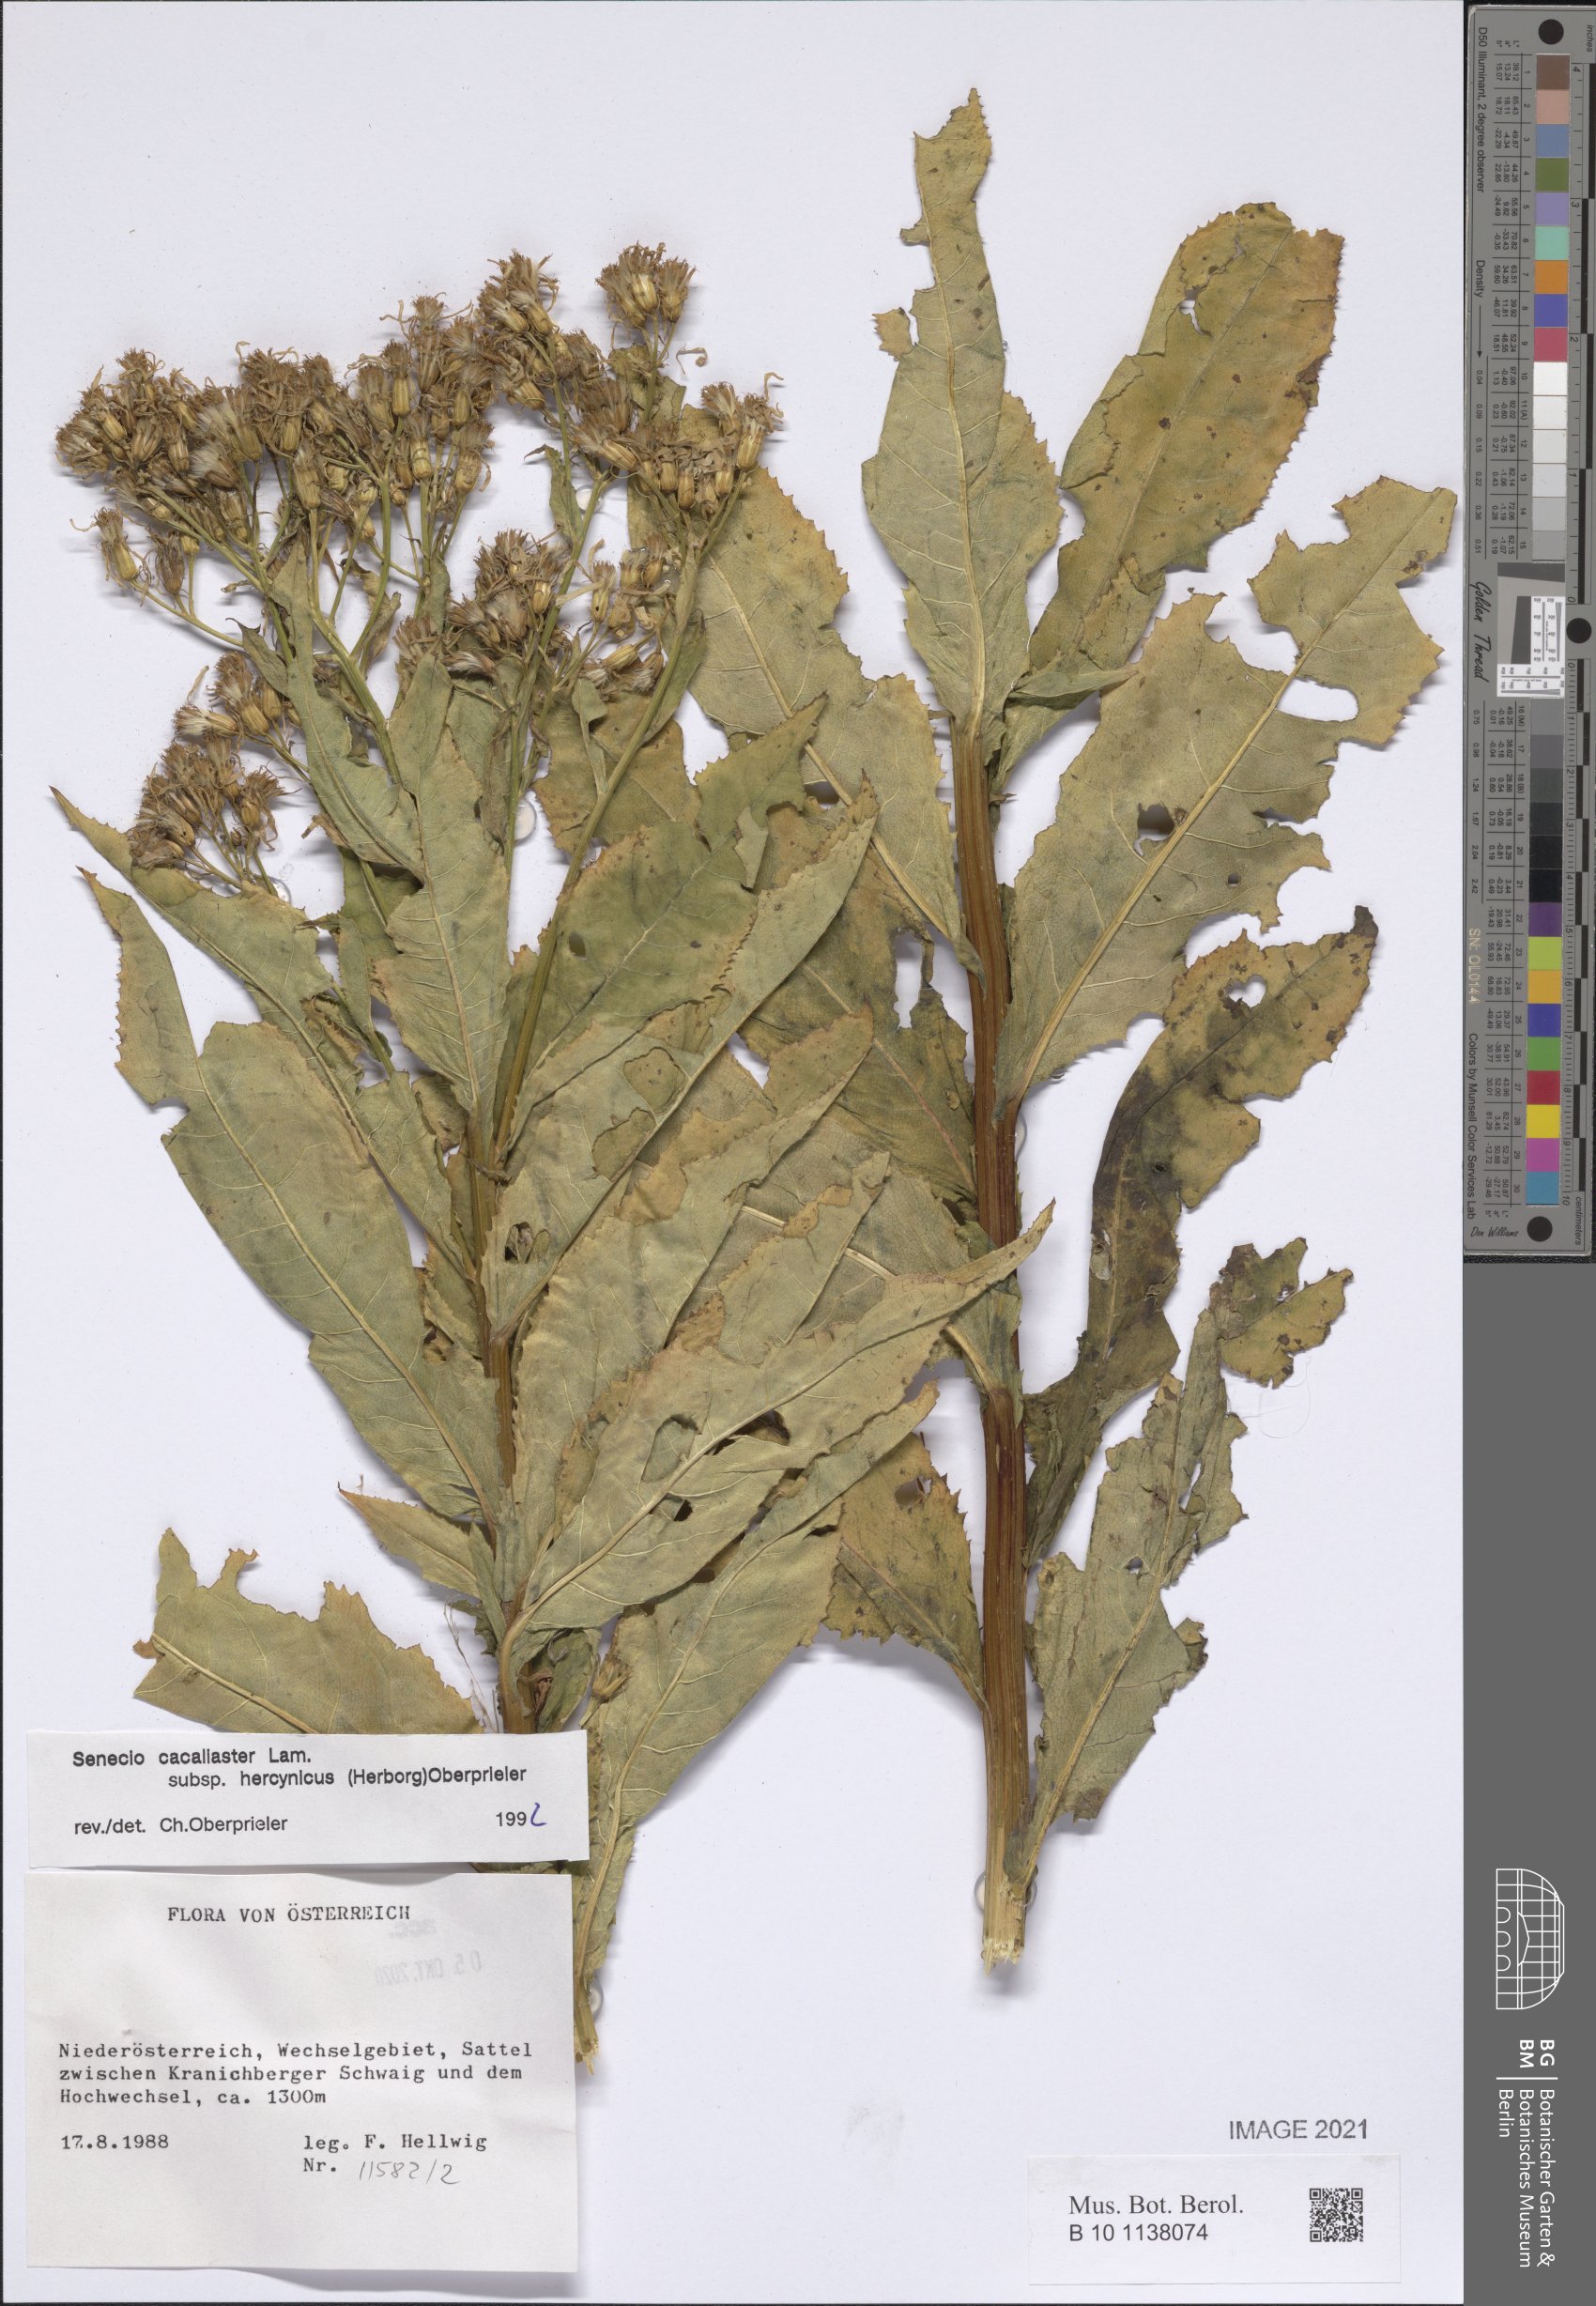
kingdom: Plantae
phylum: Tracheophyta
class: Magnoliopsida
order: Asterales
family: Asteraceae
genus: Senecio
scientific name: Senecio hercynicus
